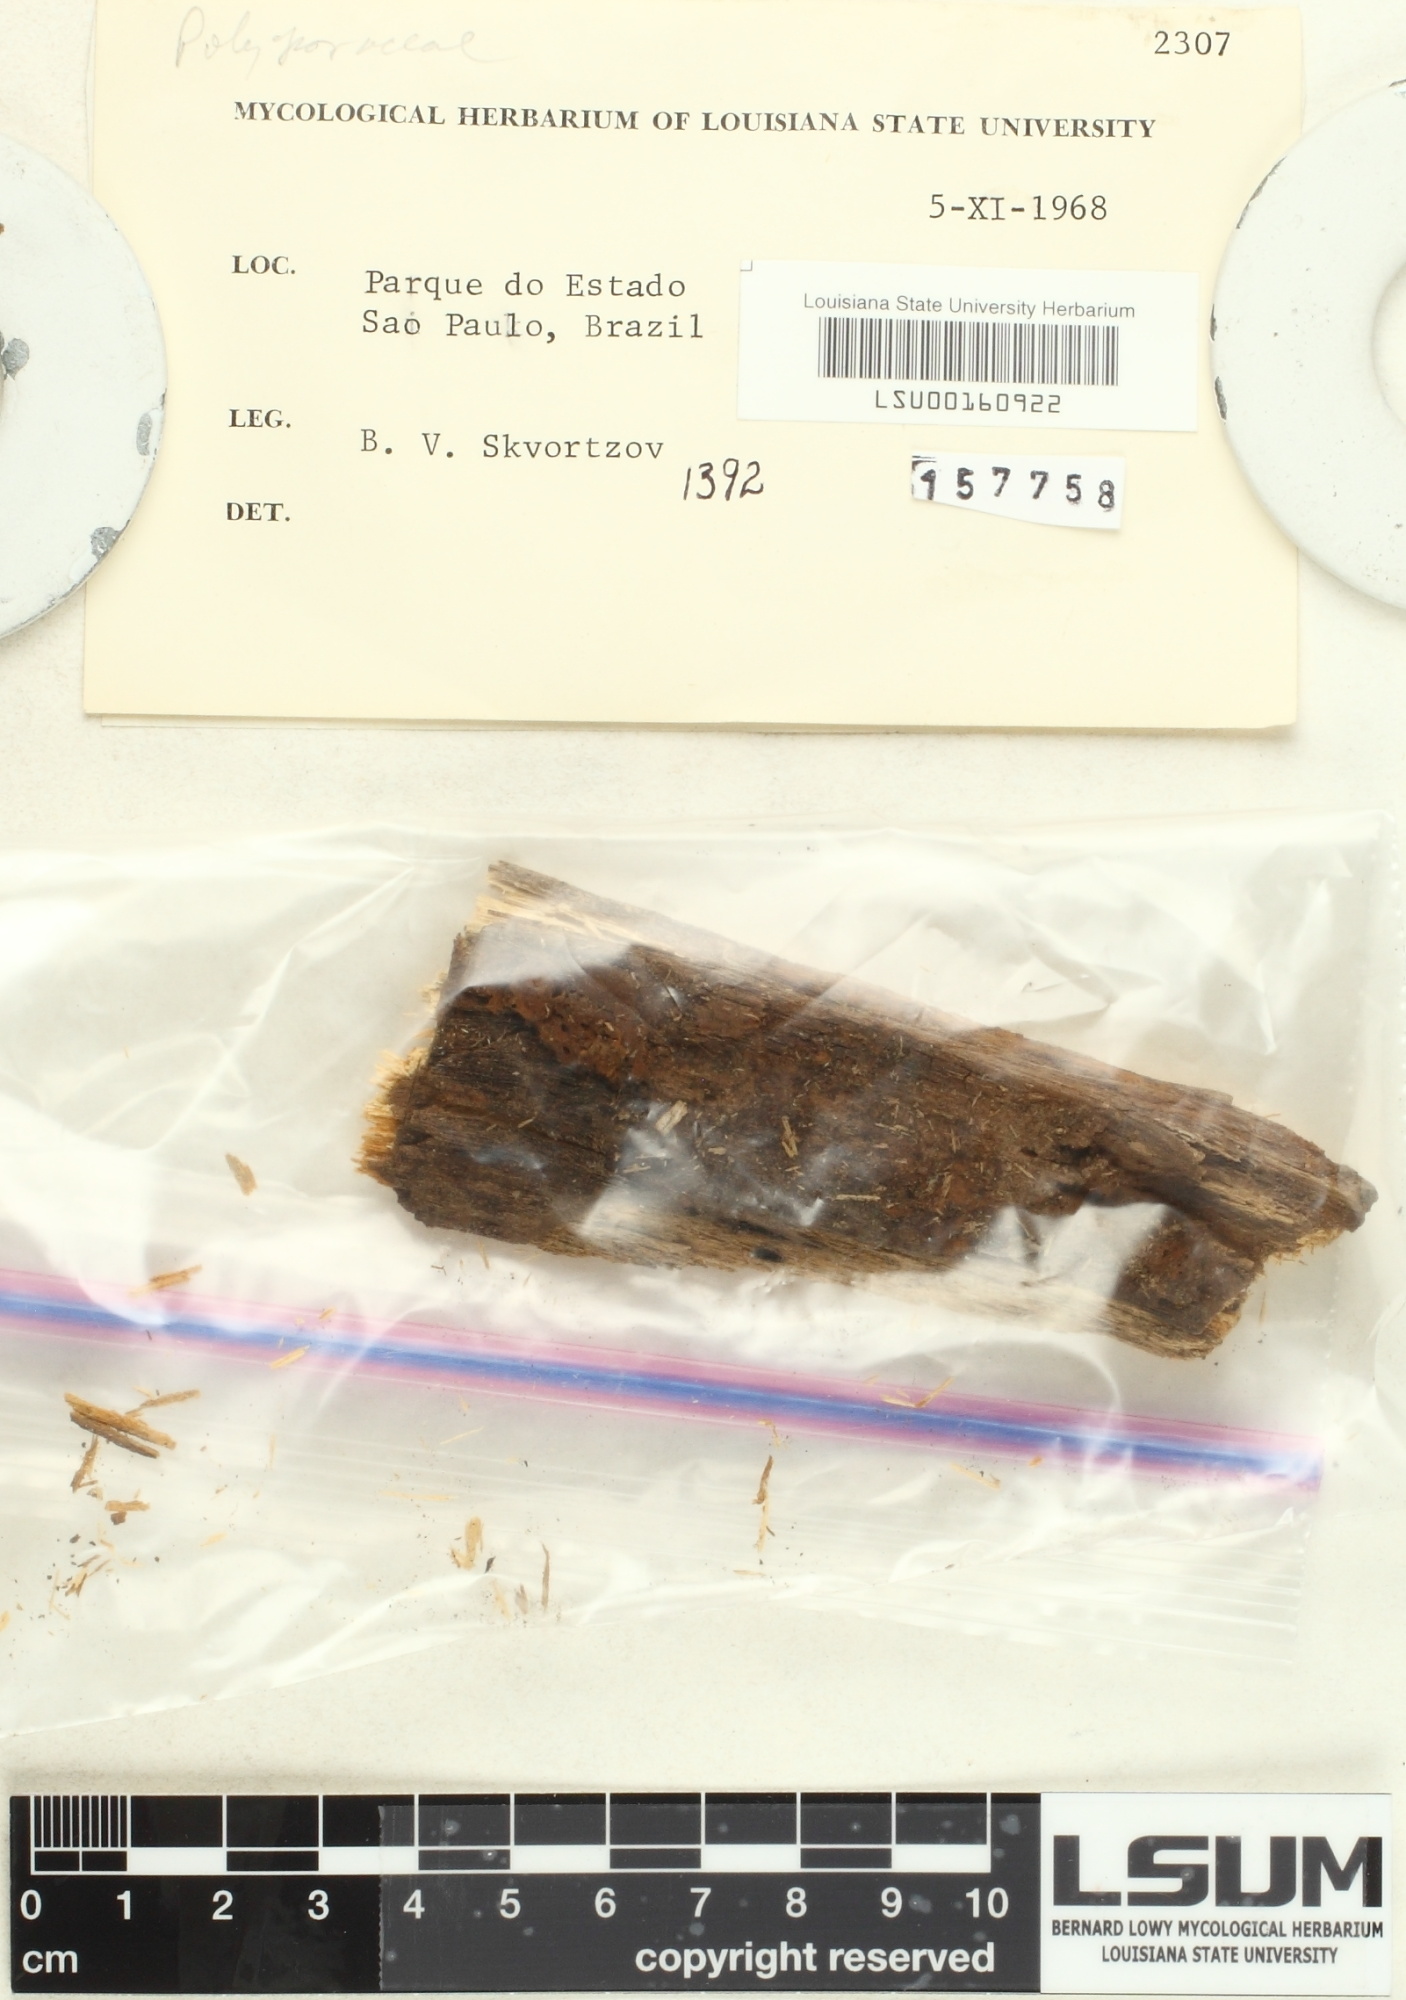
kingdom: Fungi
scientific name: Fungi
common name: Fungi
